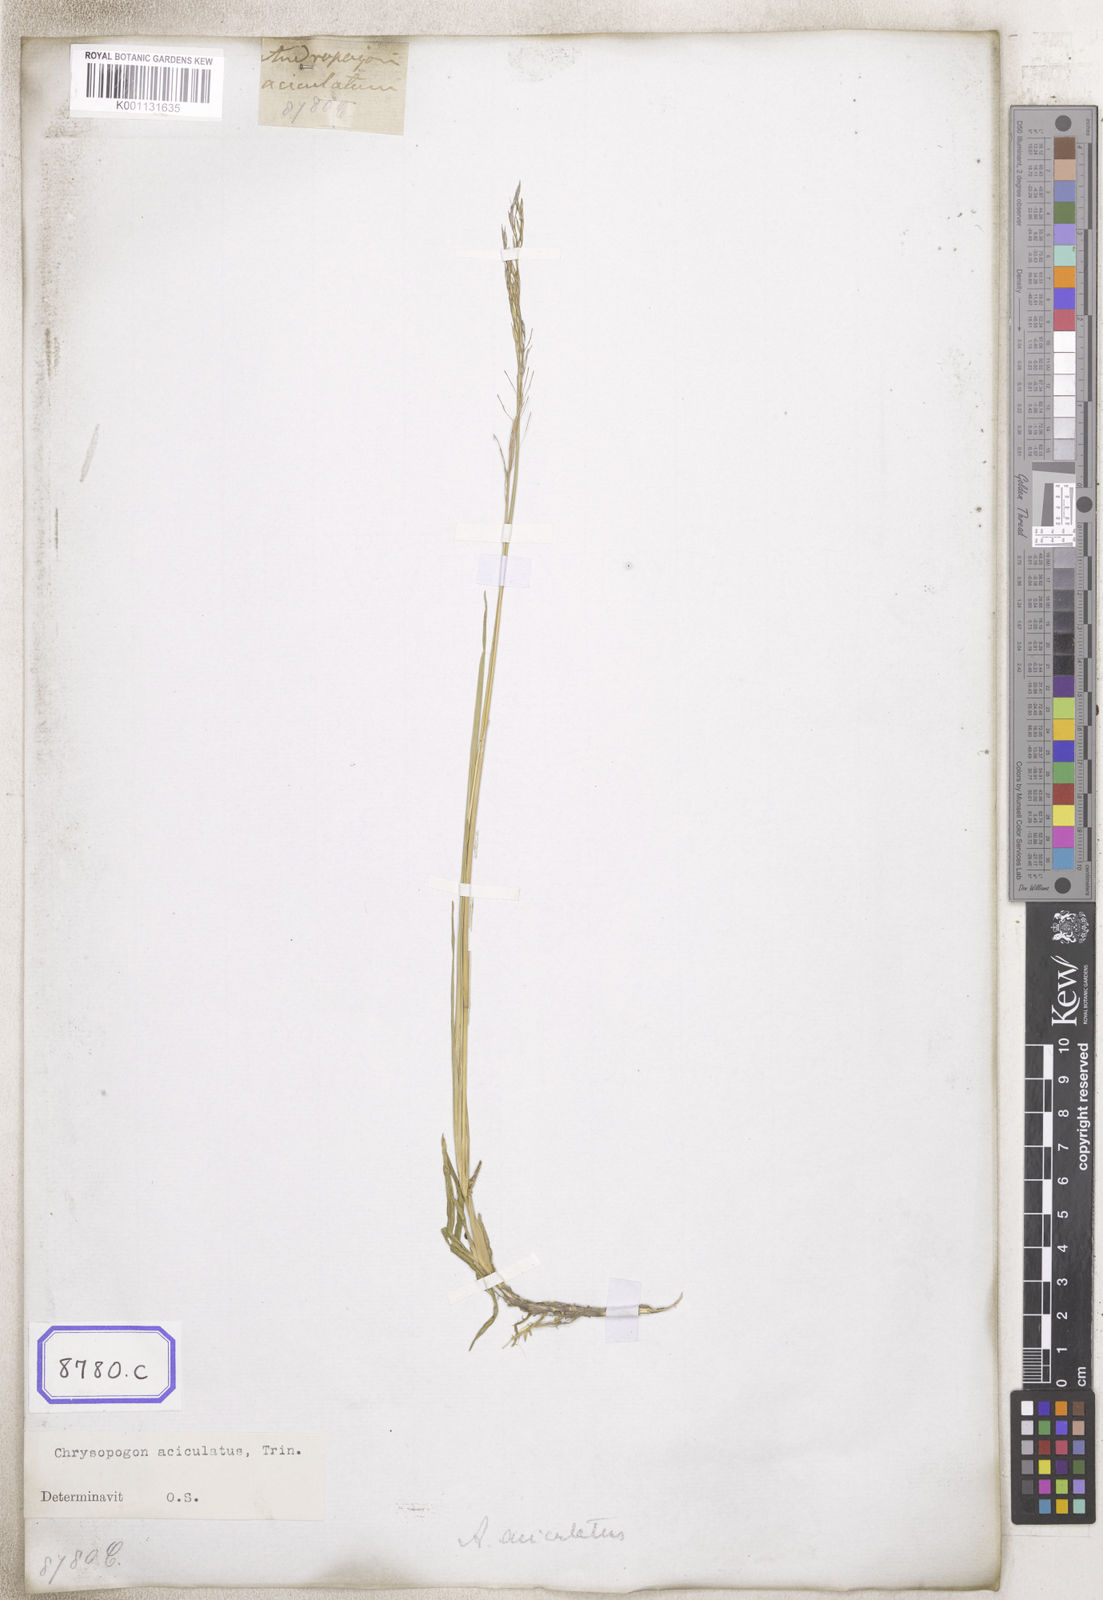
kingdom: Plantae
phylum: Tracheophyta
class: Liliopsida
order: Poales
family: Poaceae
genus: Chrysopogon
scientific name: Chrysopogon aciculatus
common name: Pilipiliula
